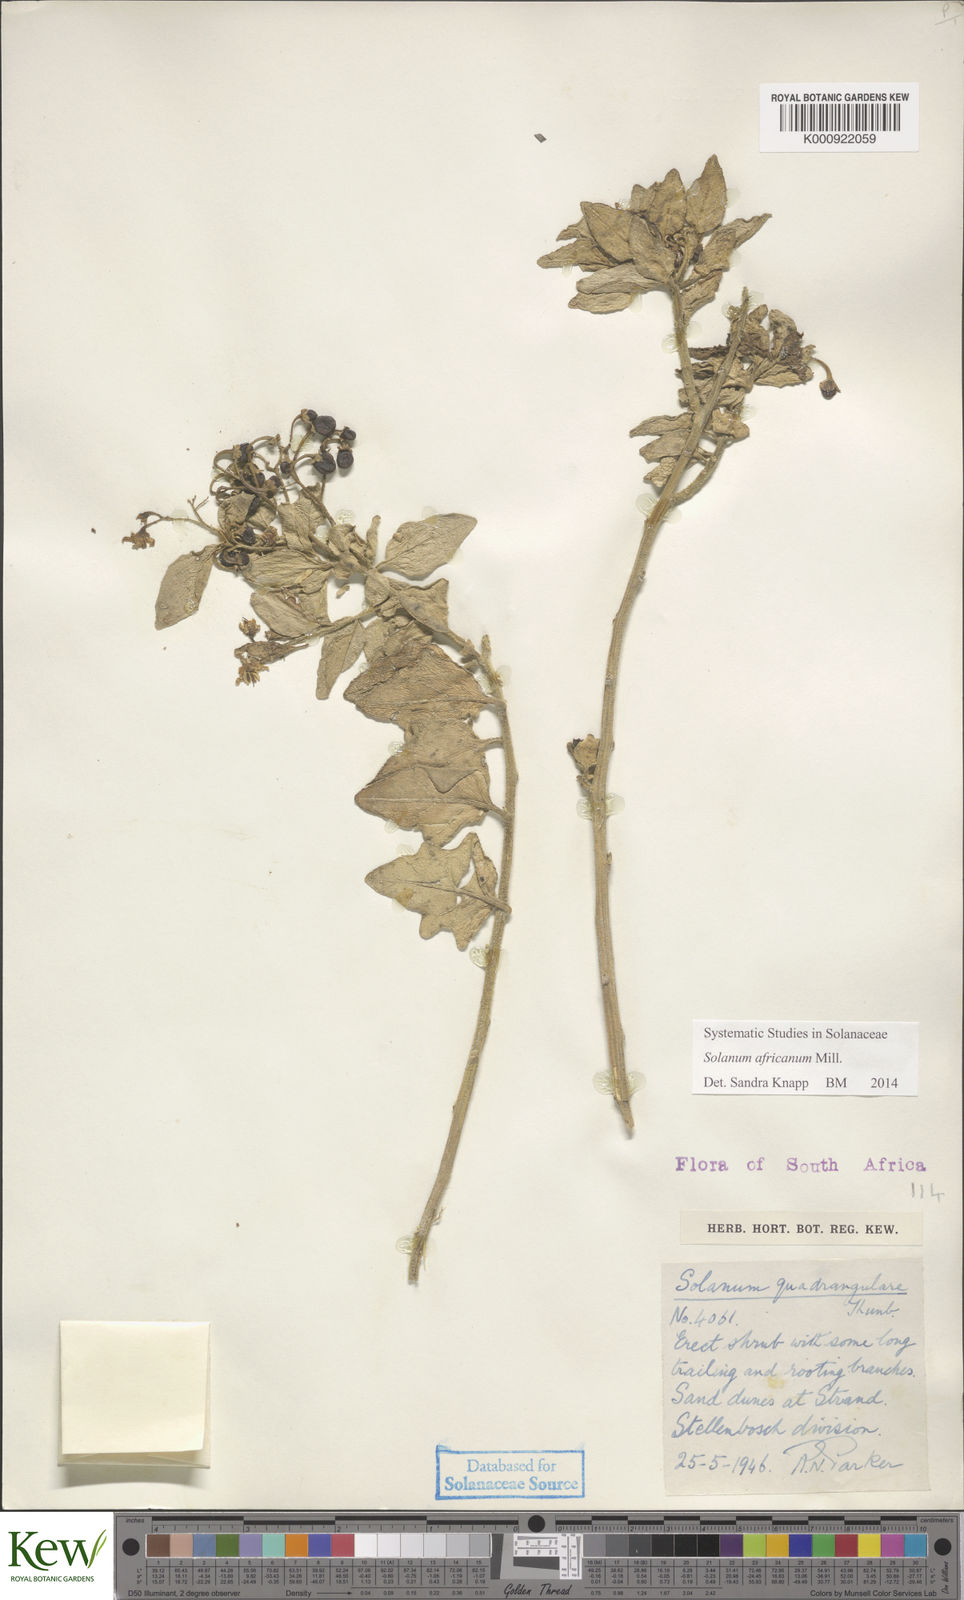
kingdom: Plantae
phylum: Tracheophyta
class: Magnoliopsida
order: Solanales
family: Solanaceae
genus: Solanum
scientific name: Solanum africanum
